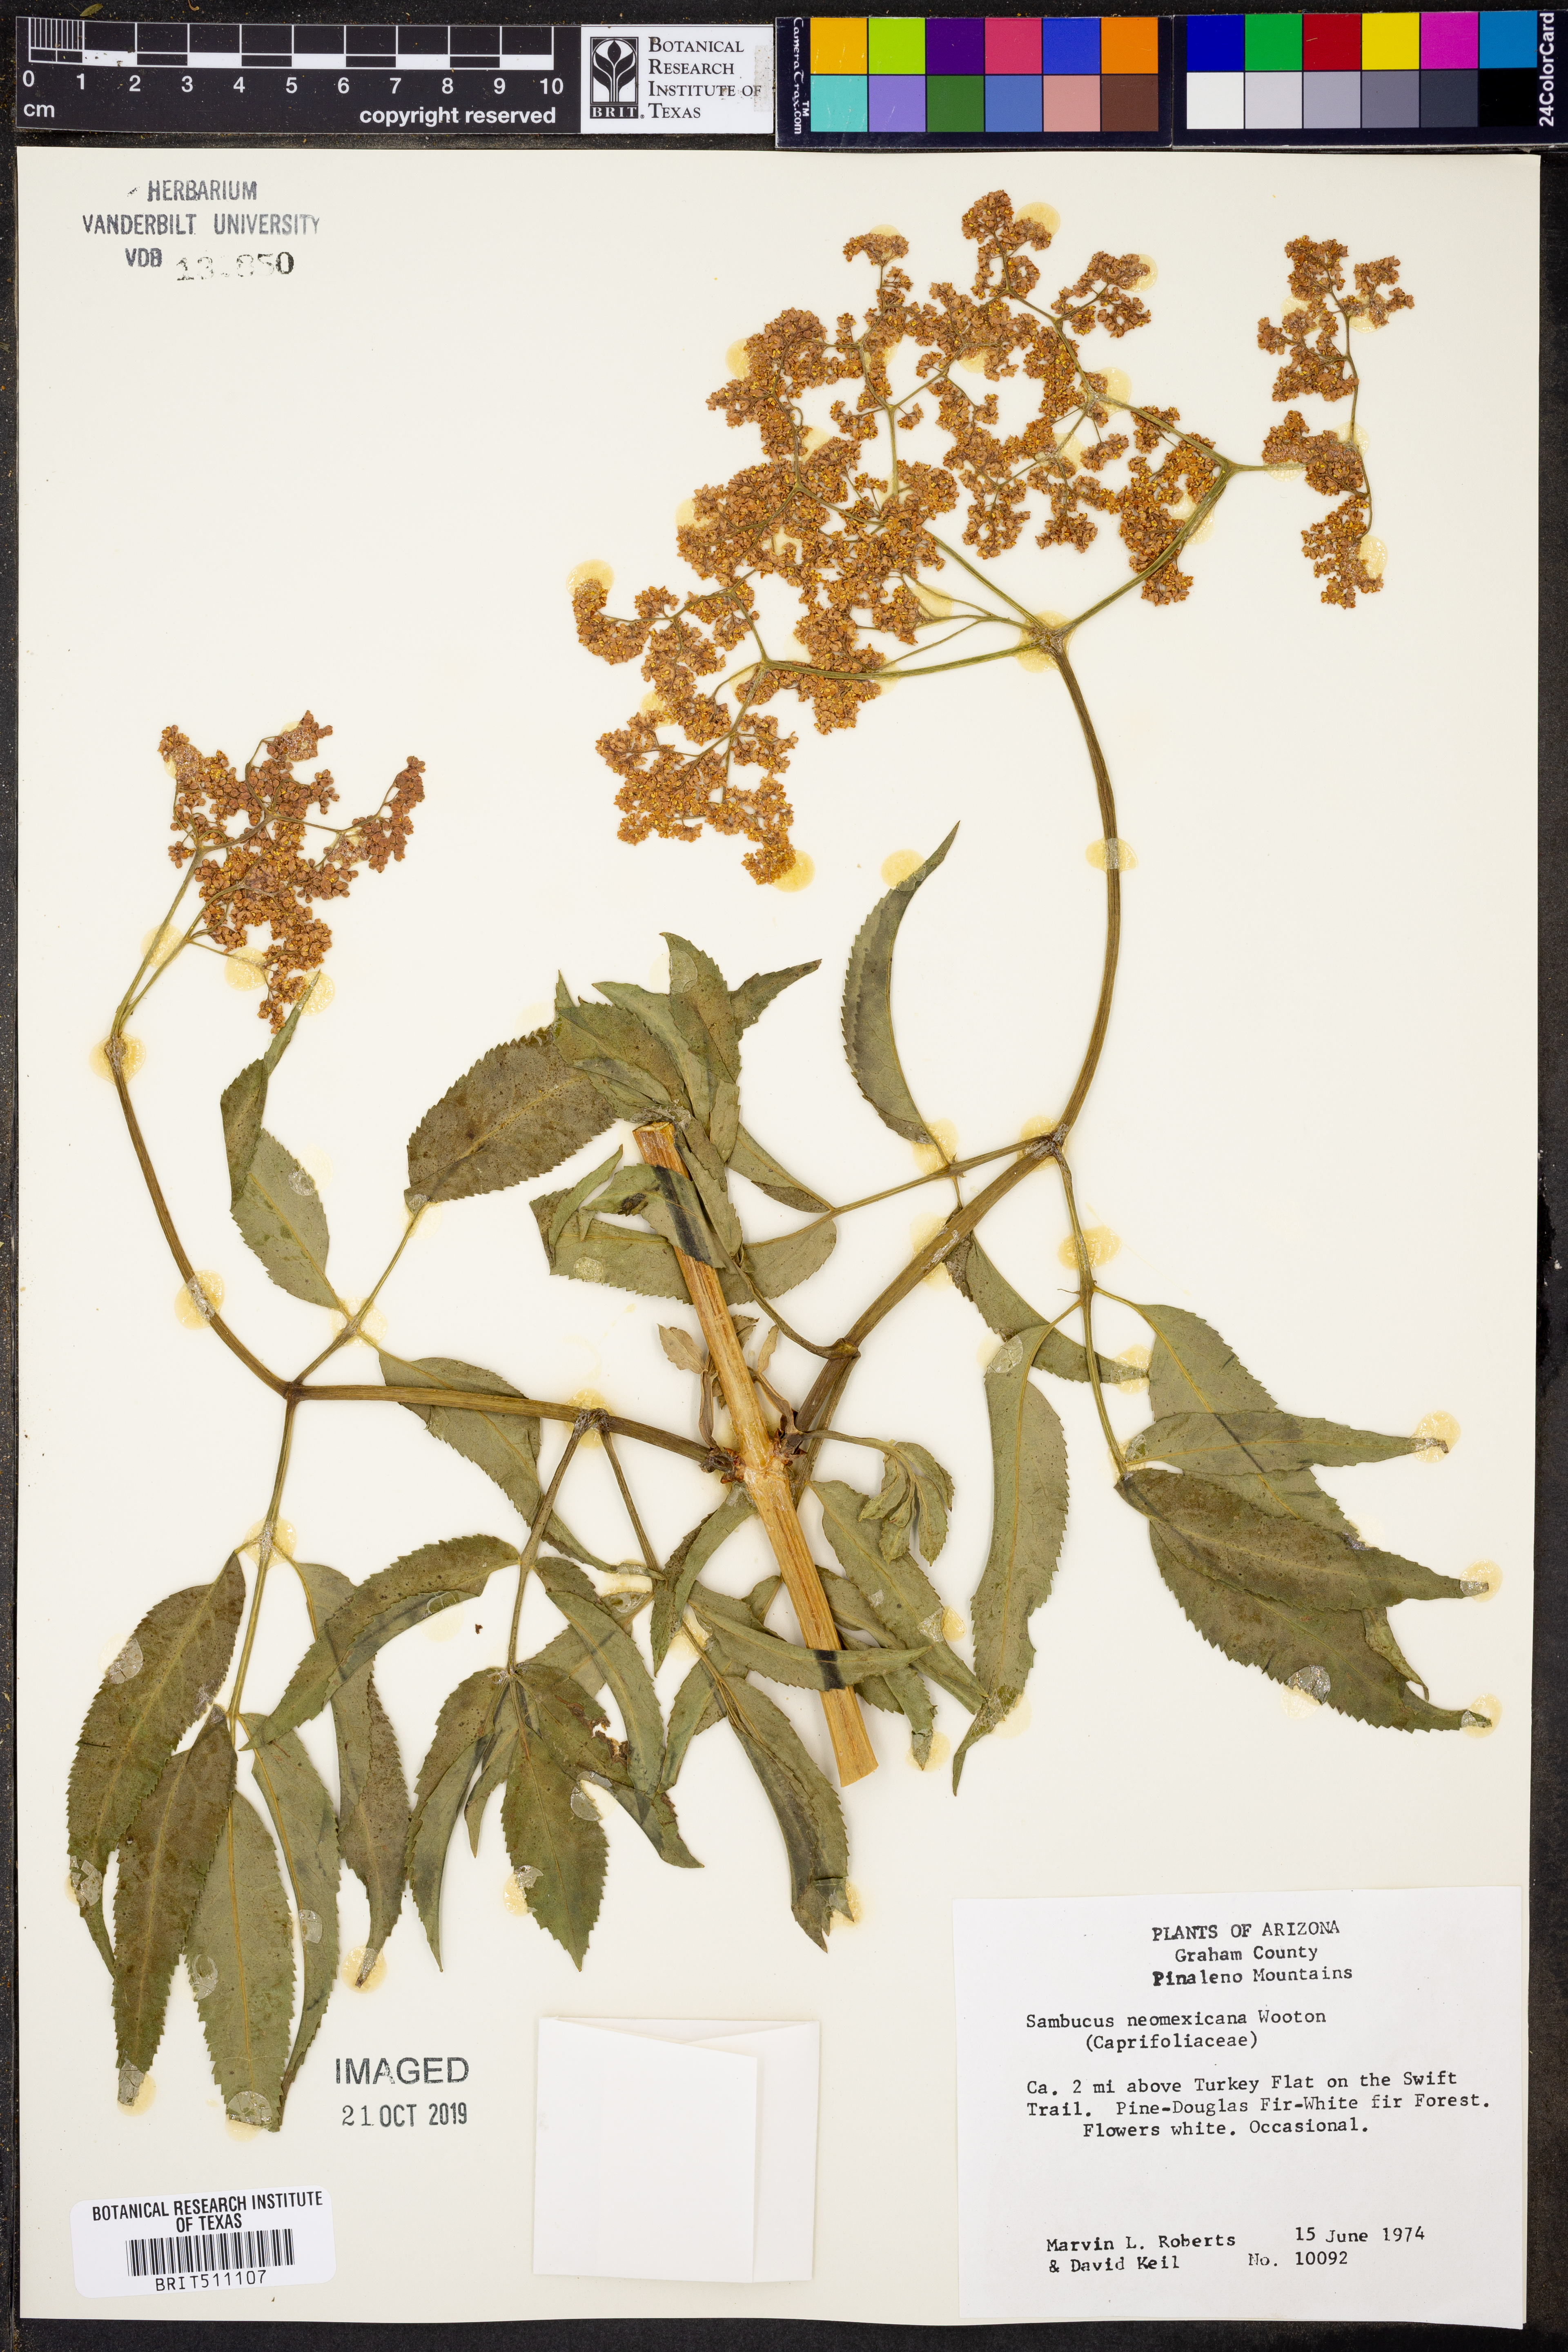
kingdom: Plantae
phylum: Tracheophyta
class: Magnoliopsida
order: Dipsacales
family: Viburnaceae
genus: Sambucus
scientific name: Sambucus cerulea
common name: Blue elder
